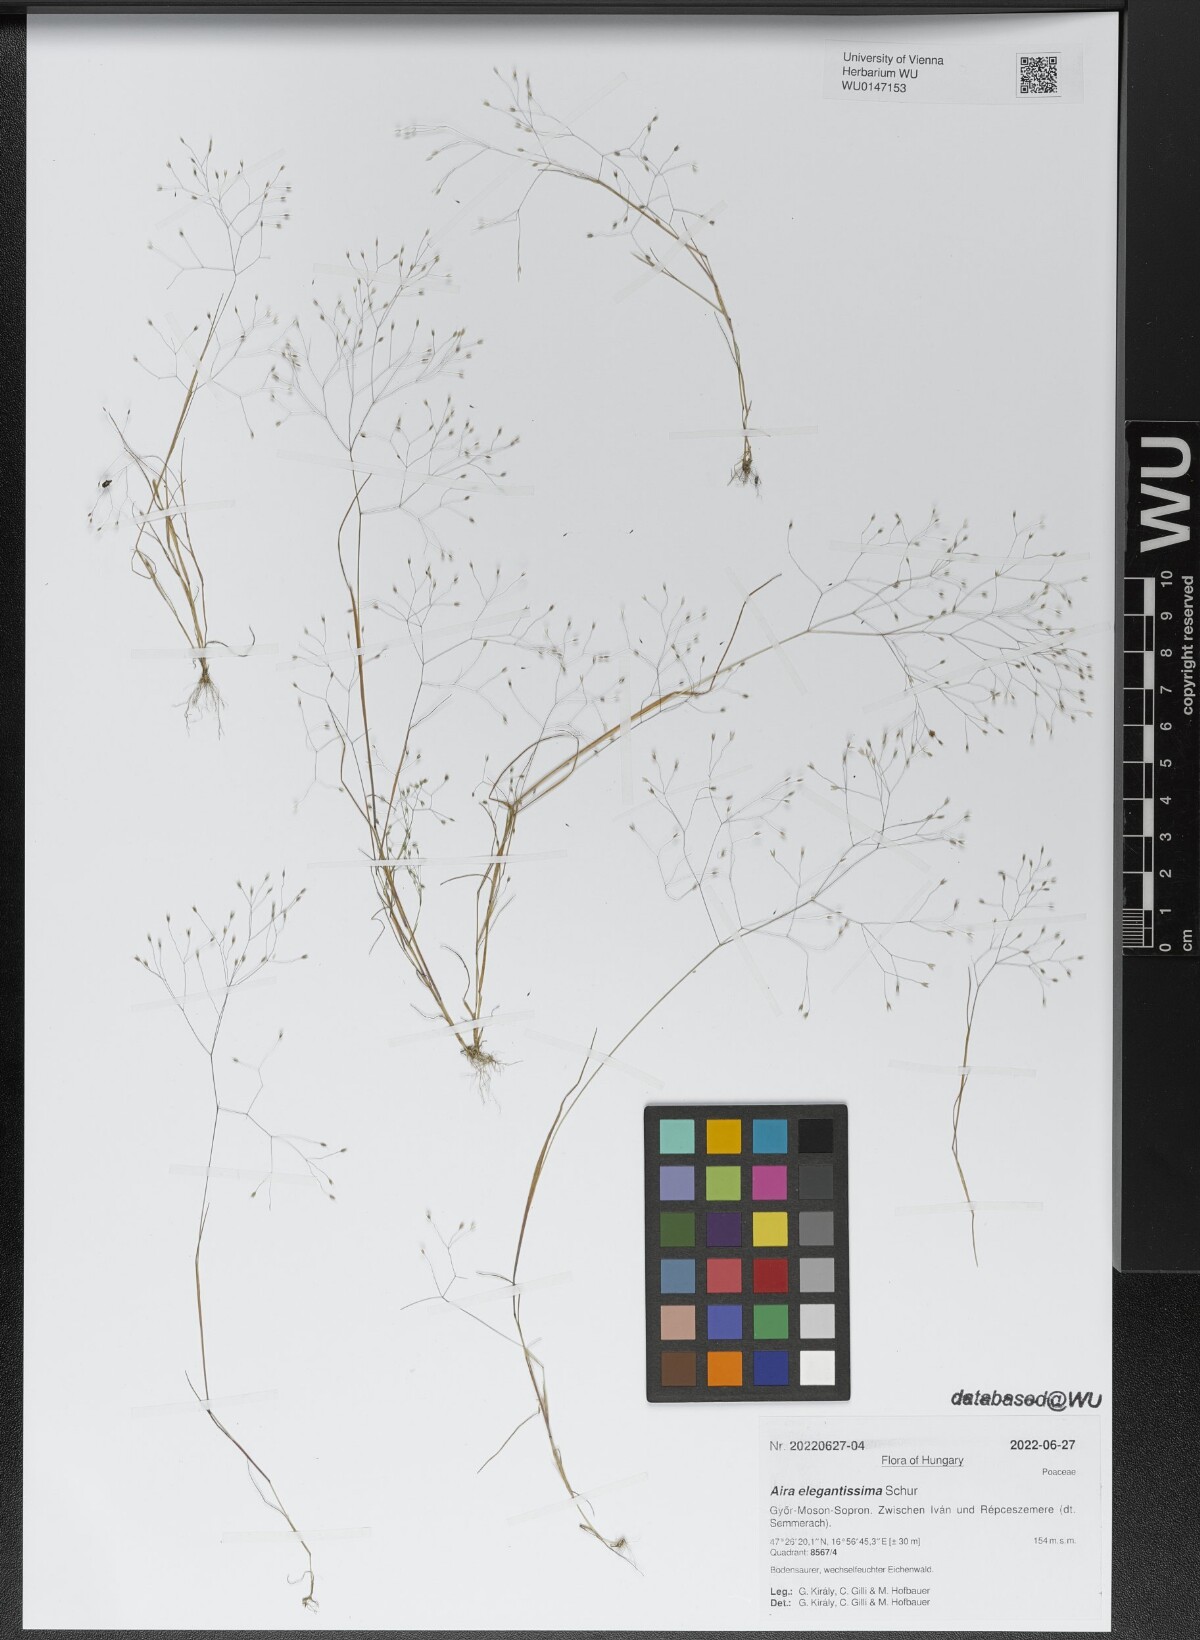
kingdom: Plantae
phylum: Tracheophyta
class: Liliopsida
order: Poales
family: Poaceae
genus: Aira
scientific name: Aira elegans
